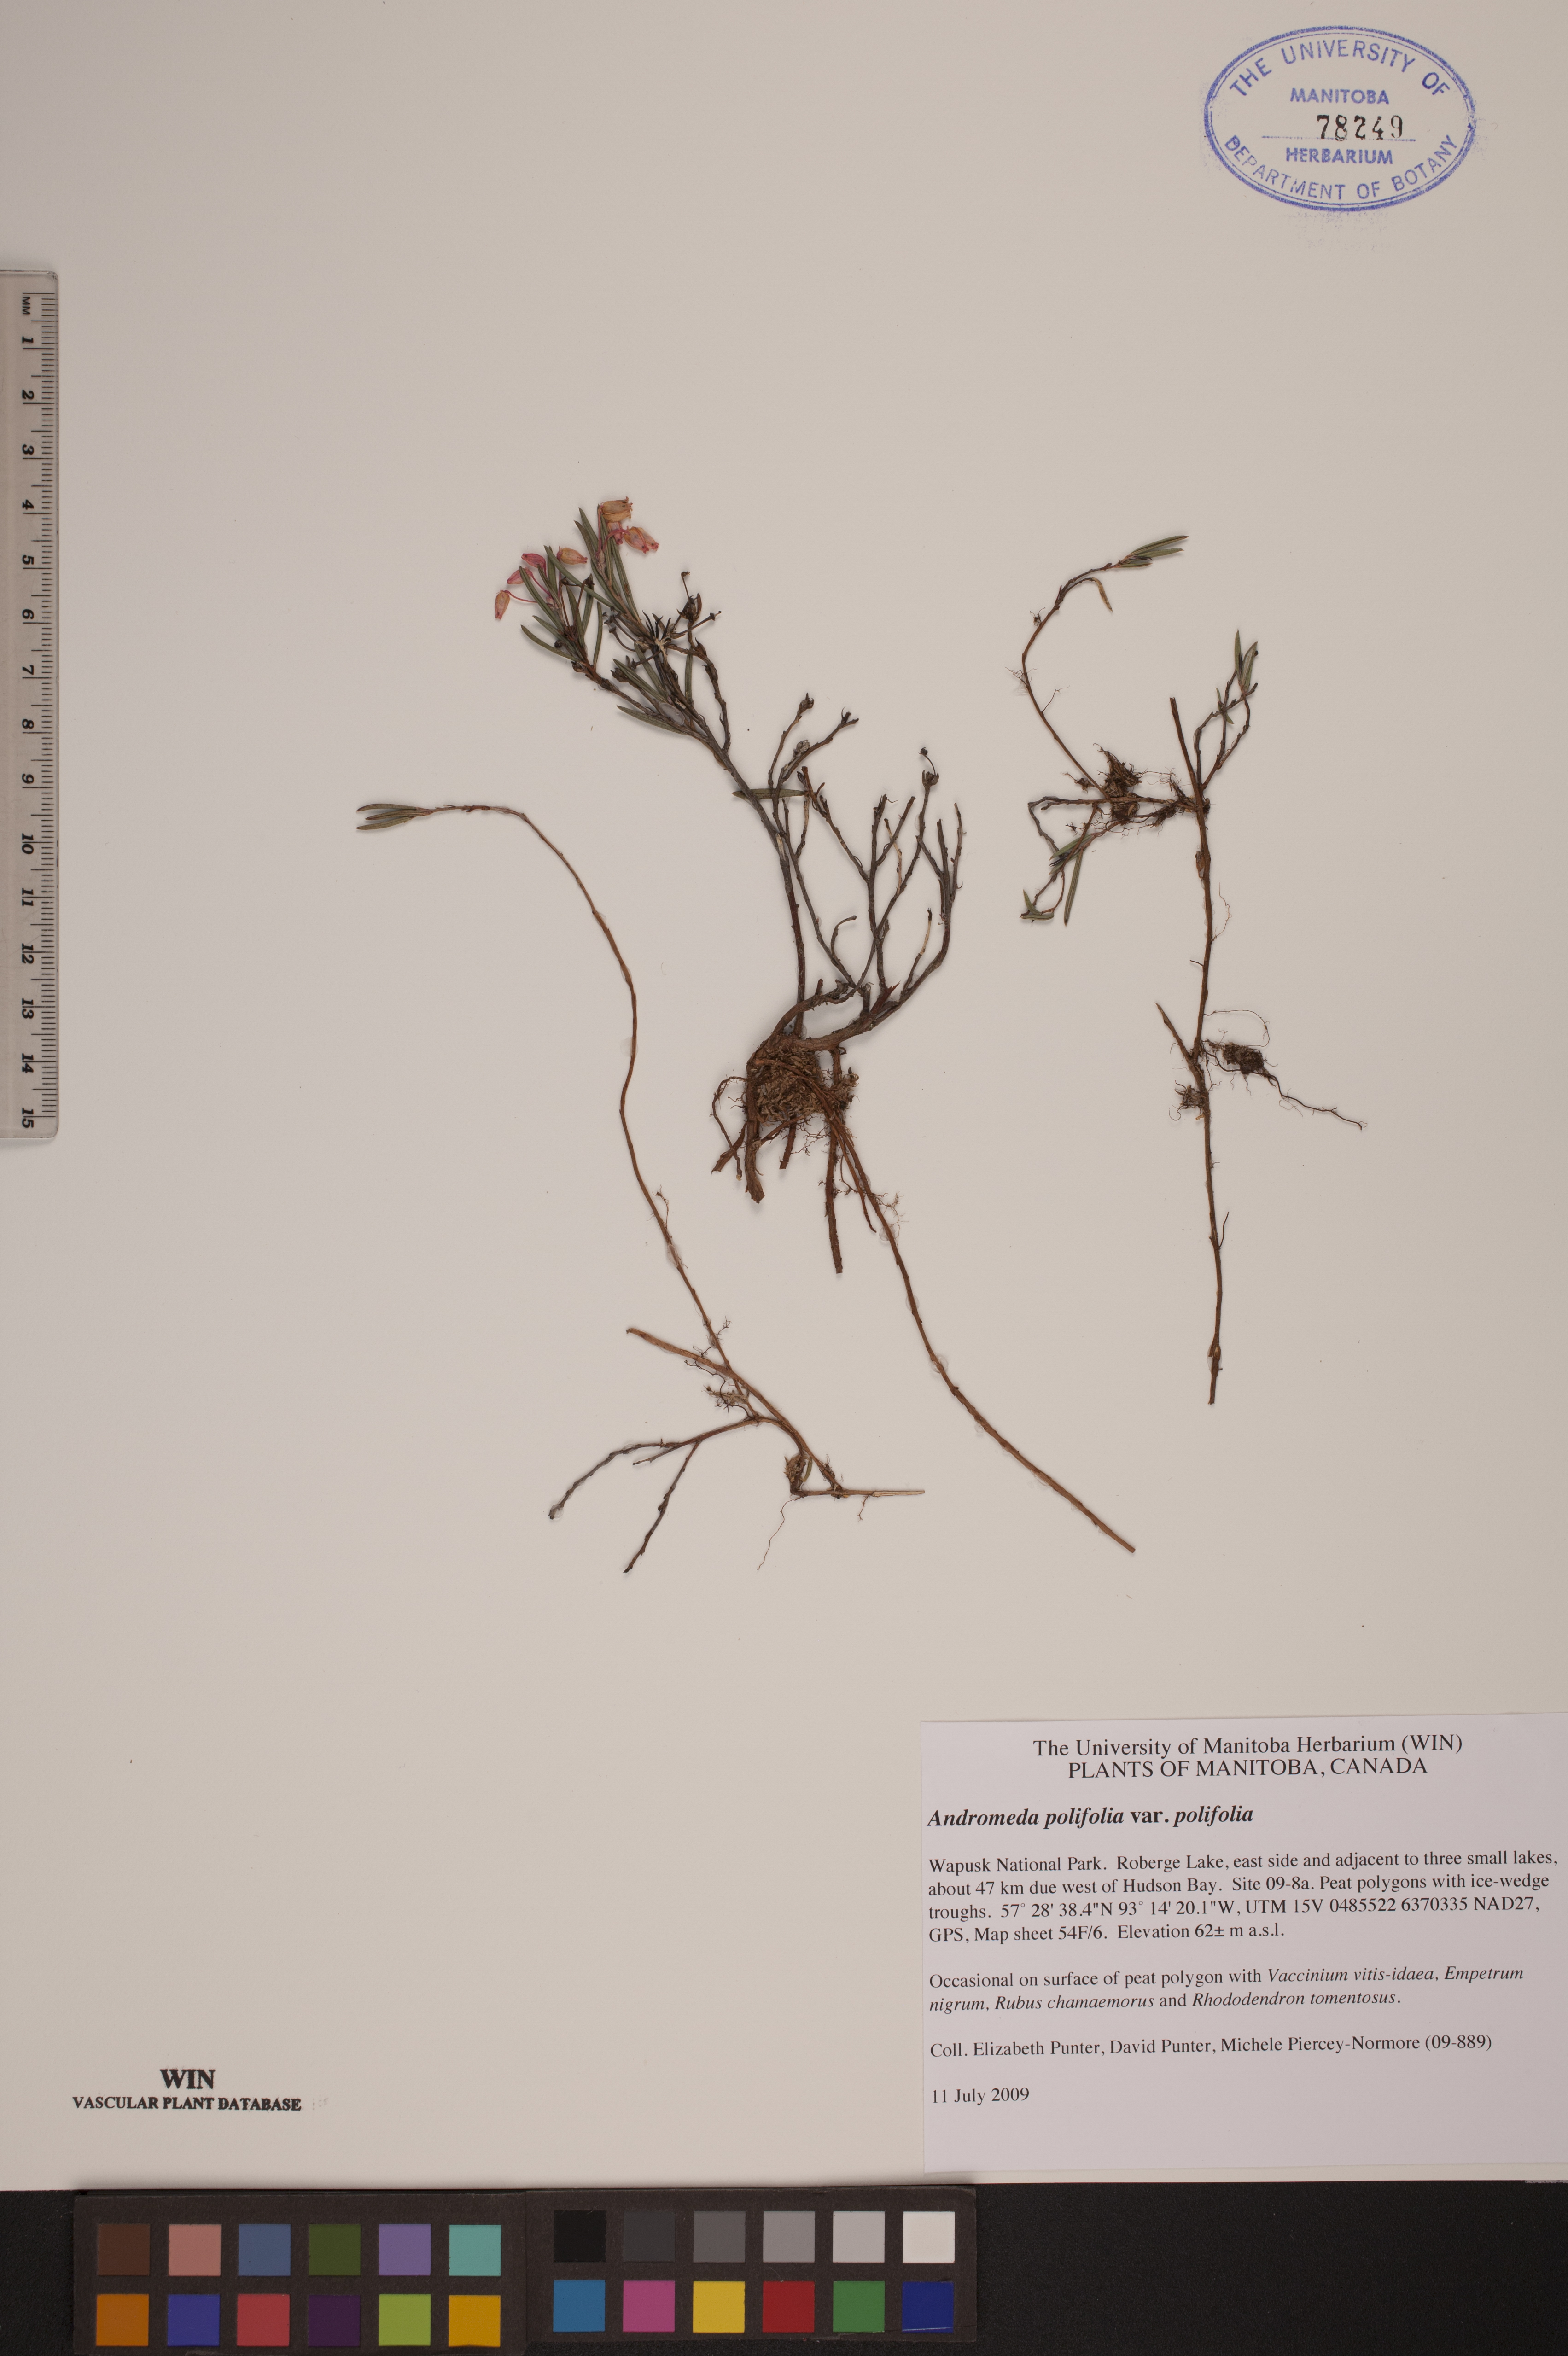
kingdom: Plantae
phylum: Tracheophyta
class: Magnoliopsida
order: Ericales
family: Ericaceae
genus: Andromeda
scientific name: Andromeda polifolia
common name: Bog-rosemary
